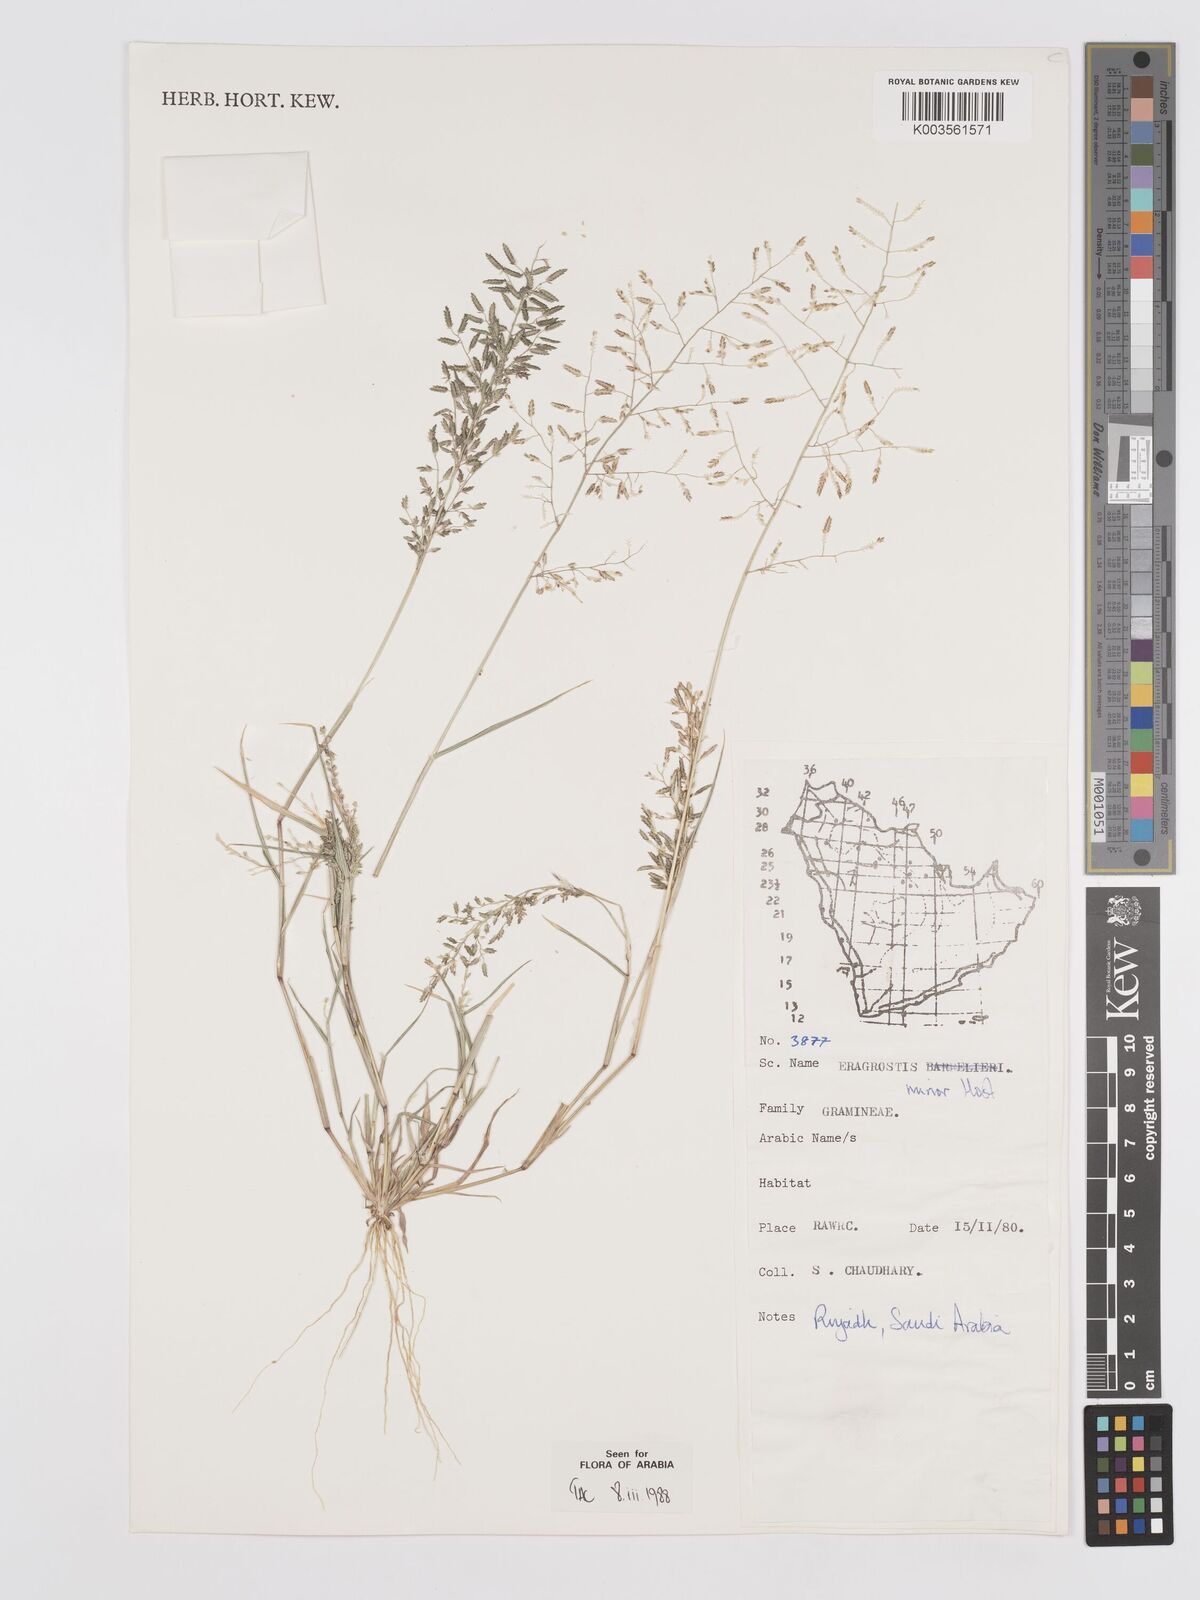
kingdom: Plantae
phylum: Tracheophyta
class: Liliopsida
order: Poales
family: Poaceae
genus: Eragrostis
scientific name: Eragrostis minor
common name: Small love-grass
